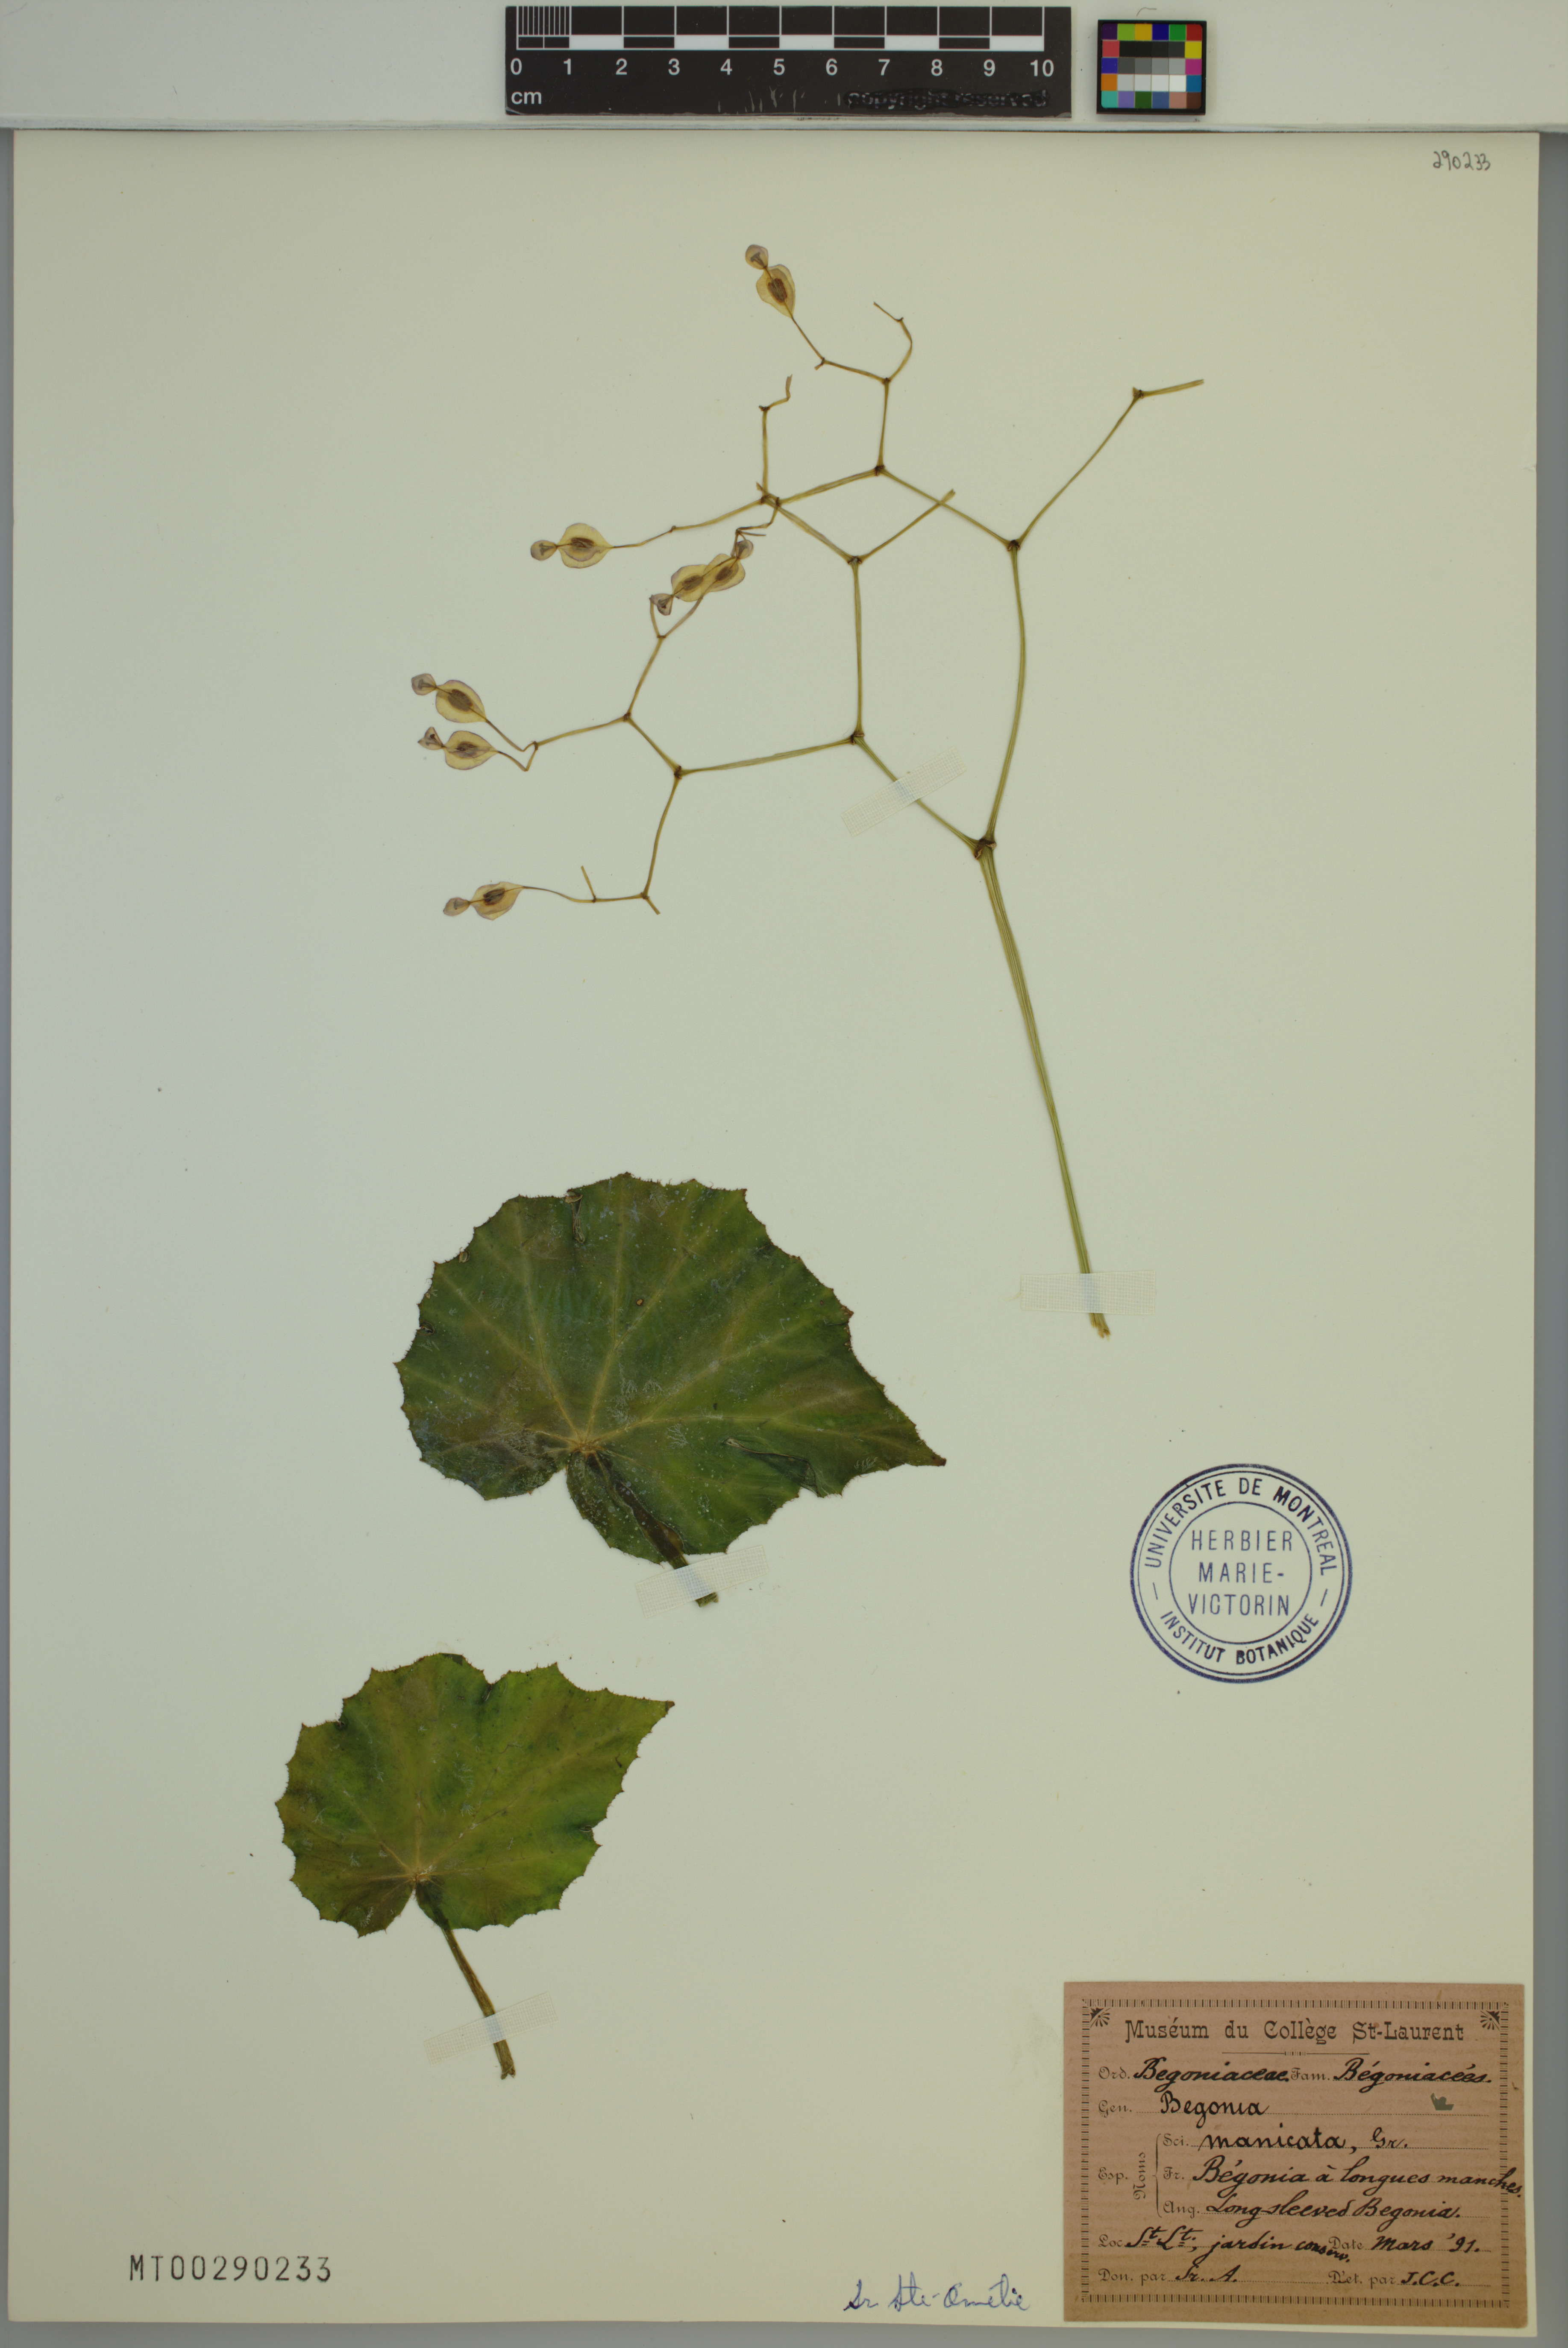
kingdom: Plantae
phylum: Tracheophyta
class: Magnoliopsida
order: Cucurbitales
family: Begoniaceae
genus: Begonia
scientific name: Begonia manicata
